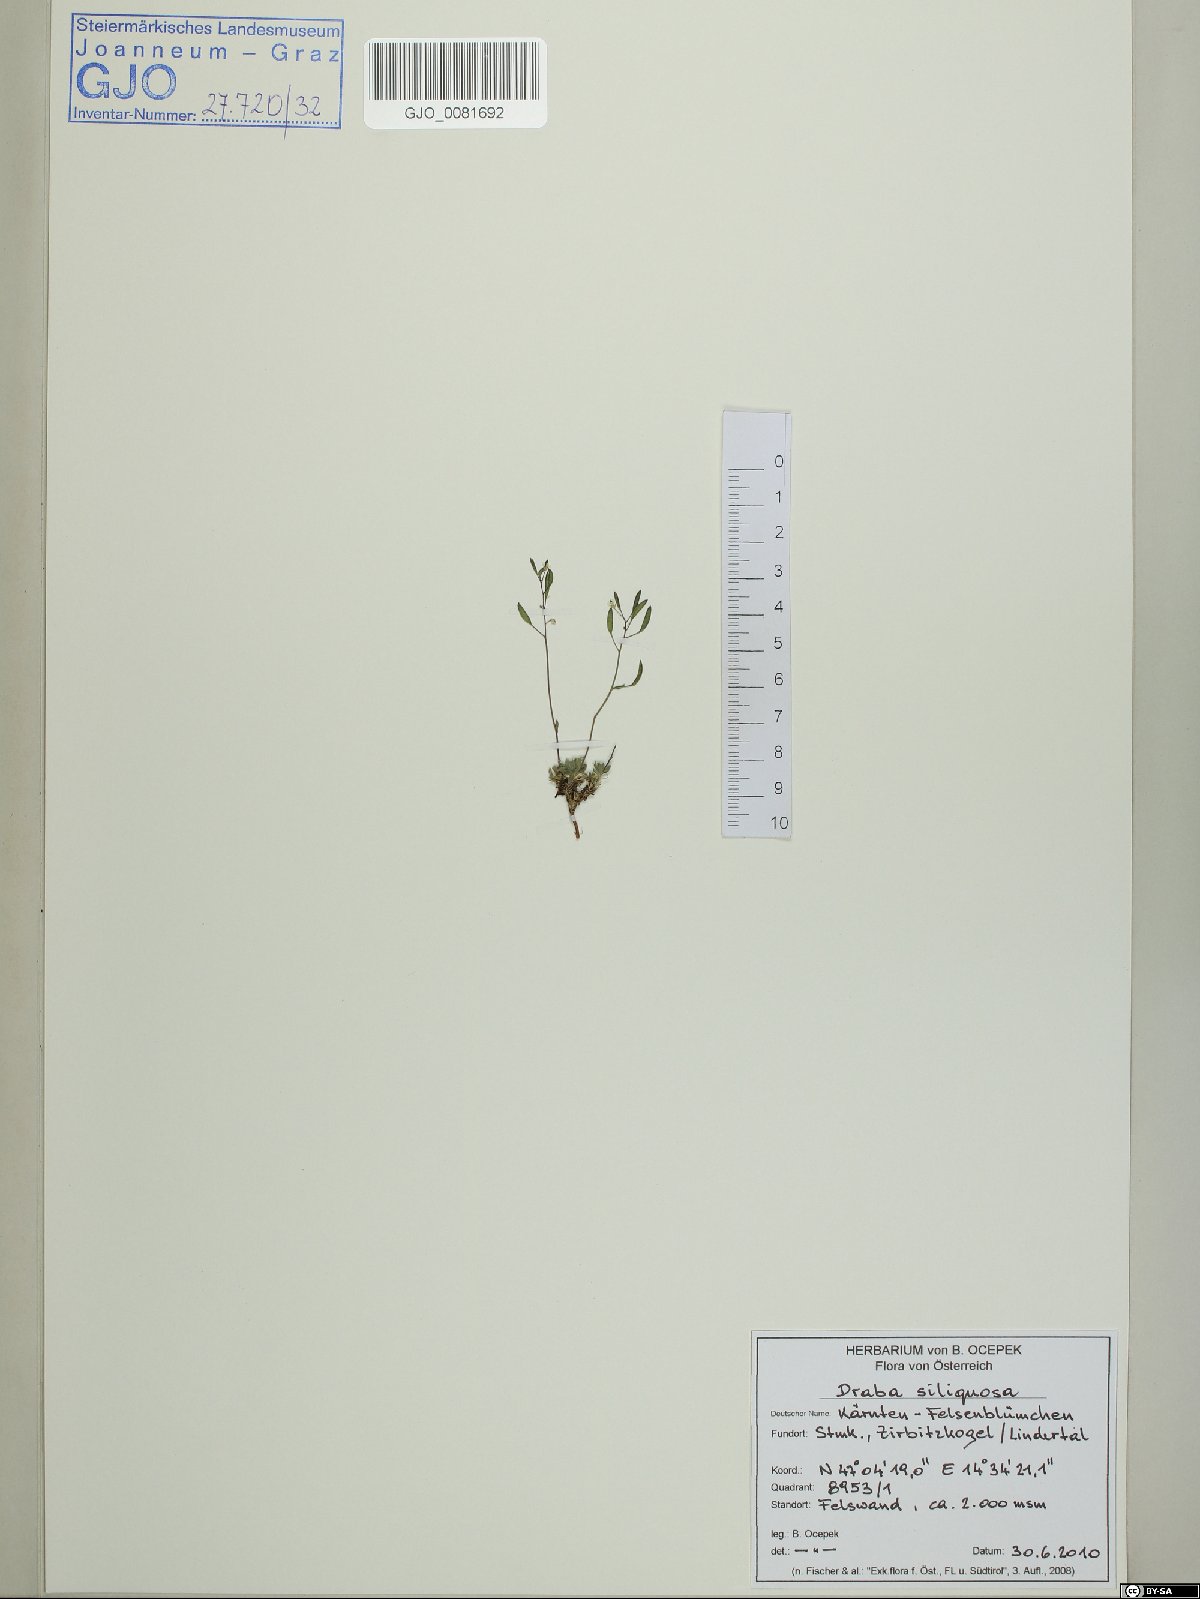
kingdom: Plantae
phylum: Tracheophyta
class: Magnoliopsida
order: Brassicales
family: Brassicaceae
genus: Draba
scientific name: Draba siliquosa
